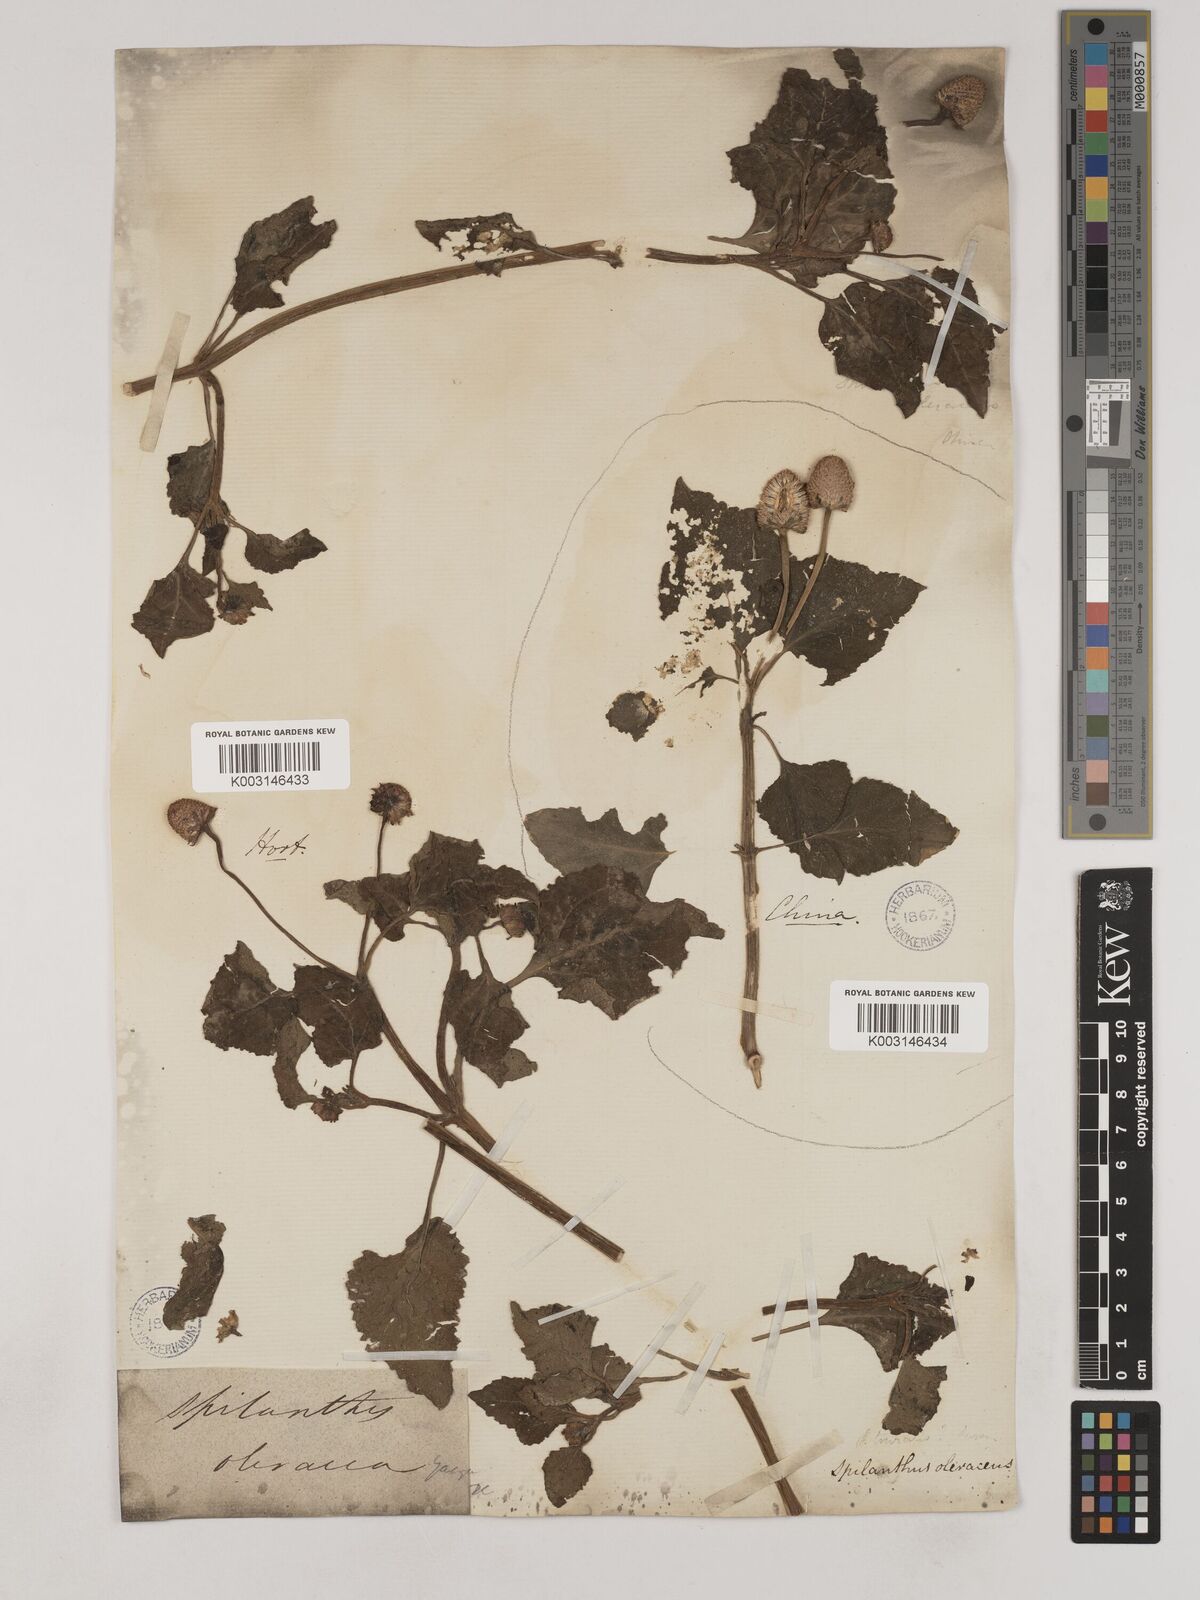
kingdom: Plantae
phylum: Tracheophyta
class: Magnoliopsida
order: Asterales
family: Asteraceae
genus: Acmella
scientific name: Acmella oleracea
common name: Brazilian cress
